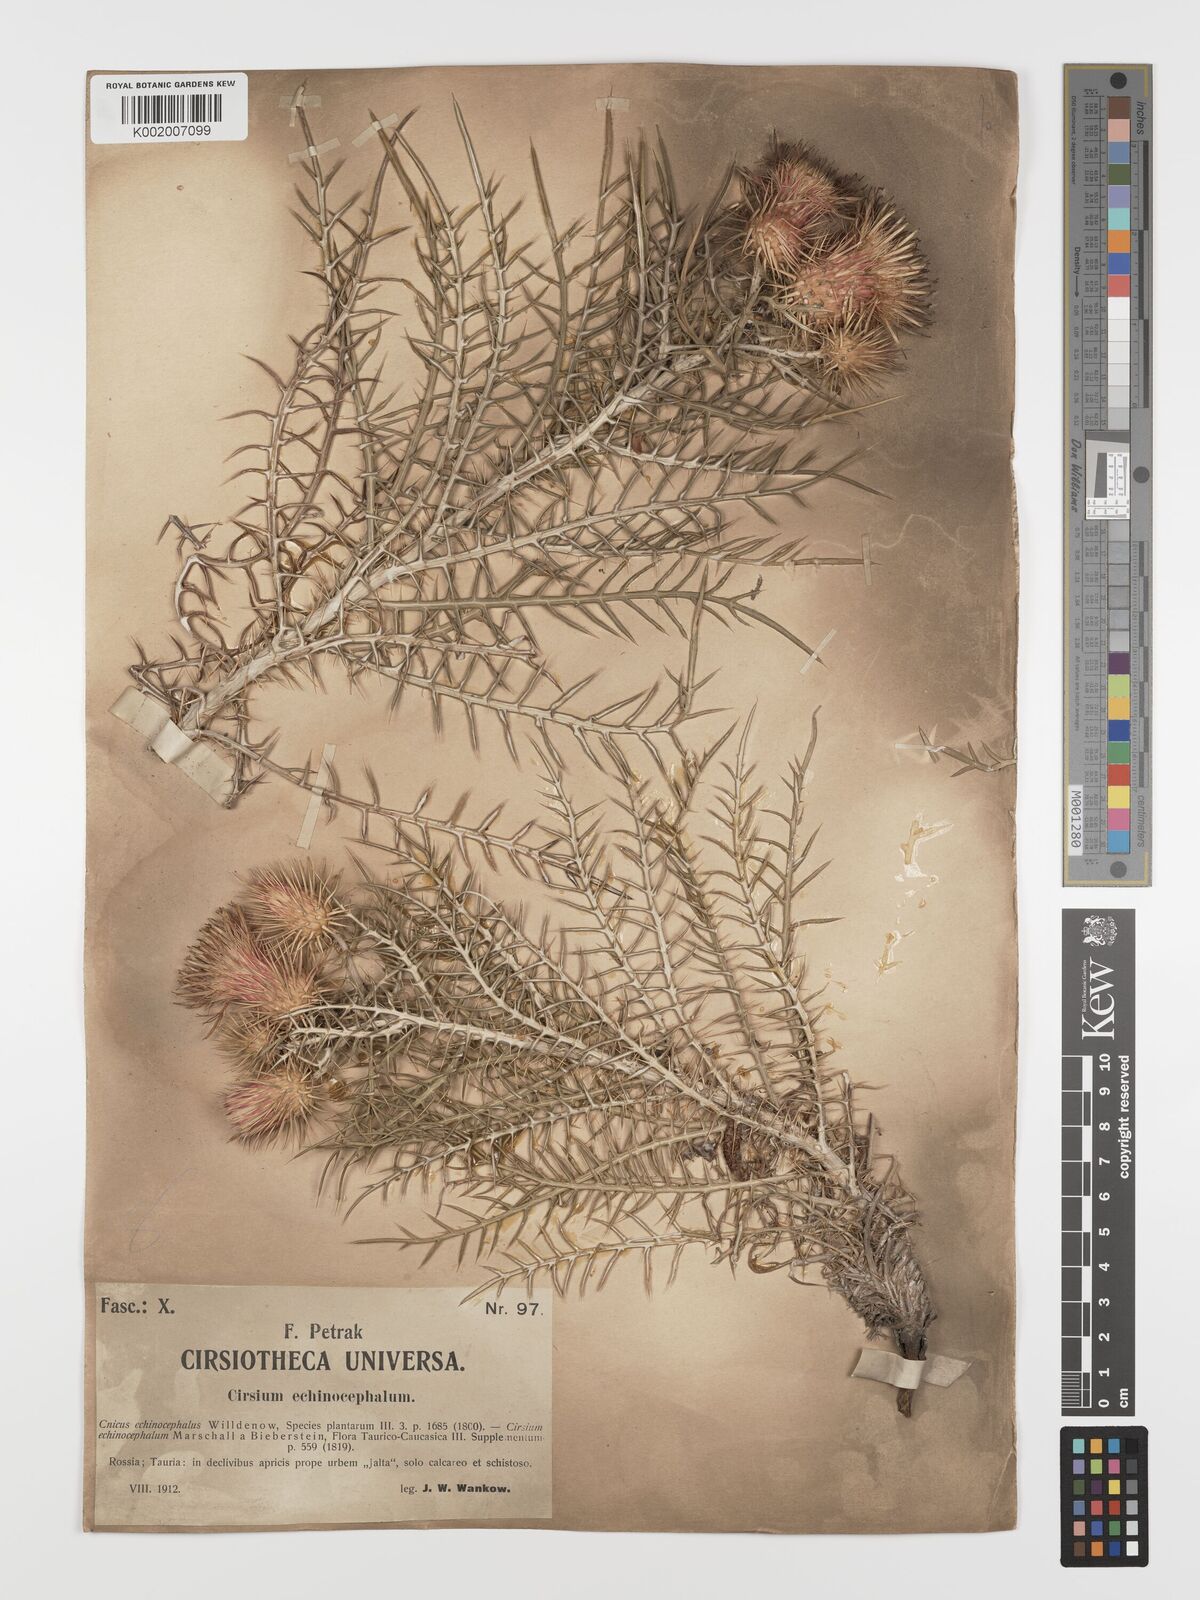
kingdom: Plantae
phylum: Tracheophyta
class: Magnoliopsida
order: Asterales
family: Asteraceae
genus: Ptilostemon
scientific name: Ptilostemon echinocephalus
